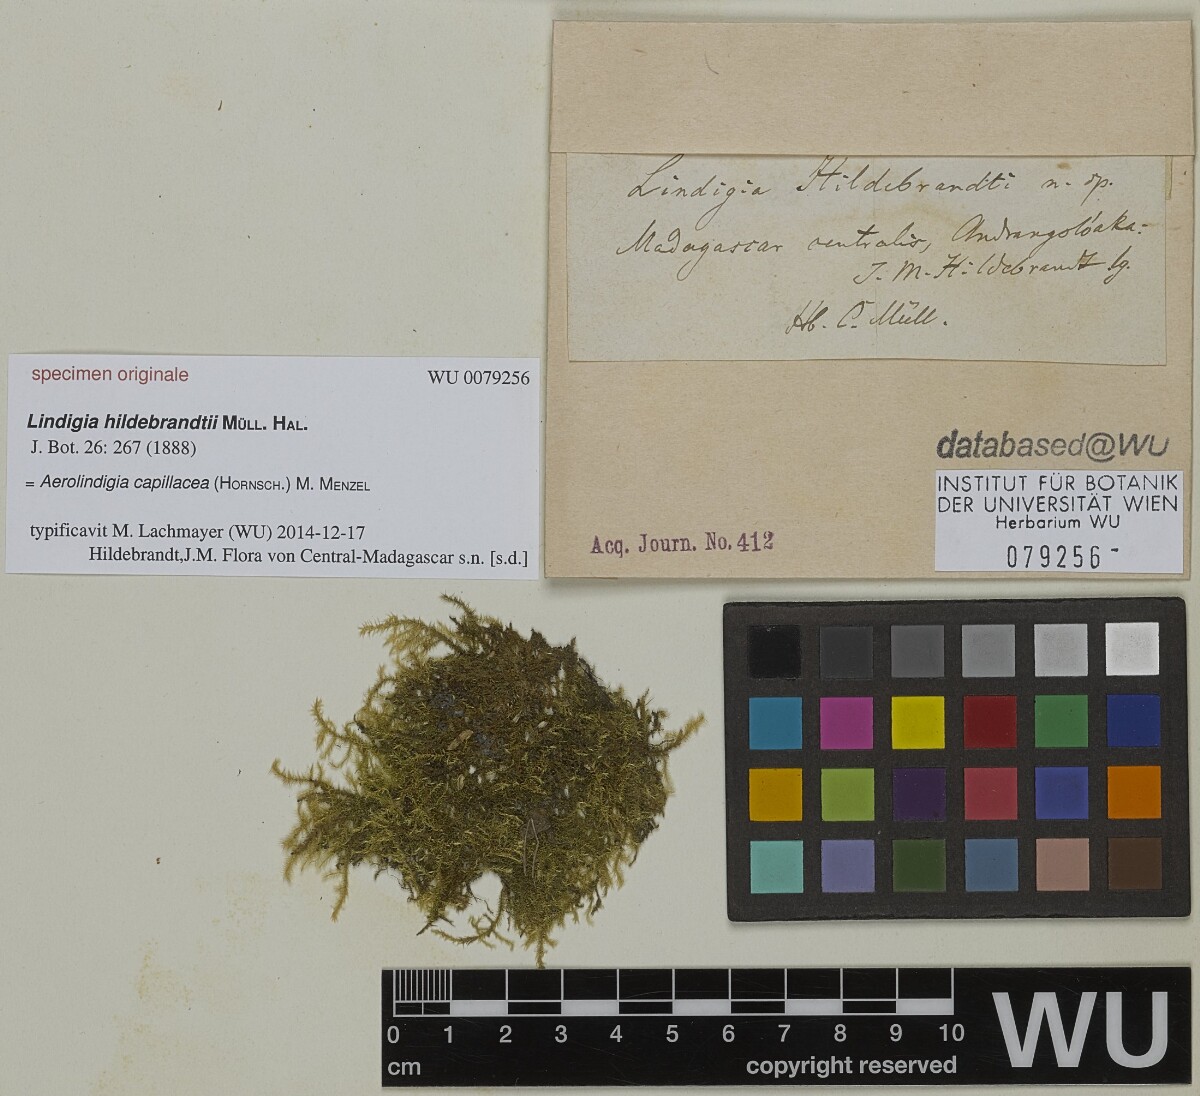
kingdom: Plantae
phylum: Bryophyta
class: Bryopsida
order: Hypnales
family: Brachytheciaceae
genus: Aerolindigia
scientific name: Aerolindigia capillacea
